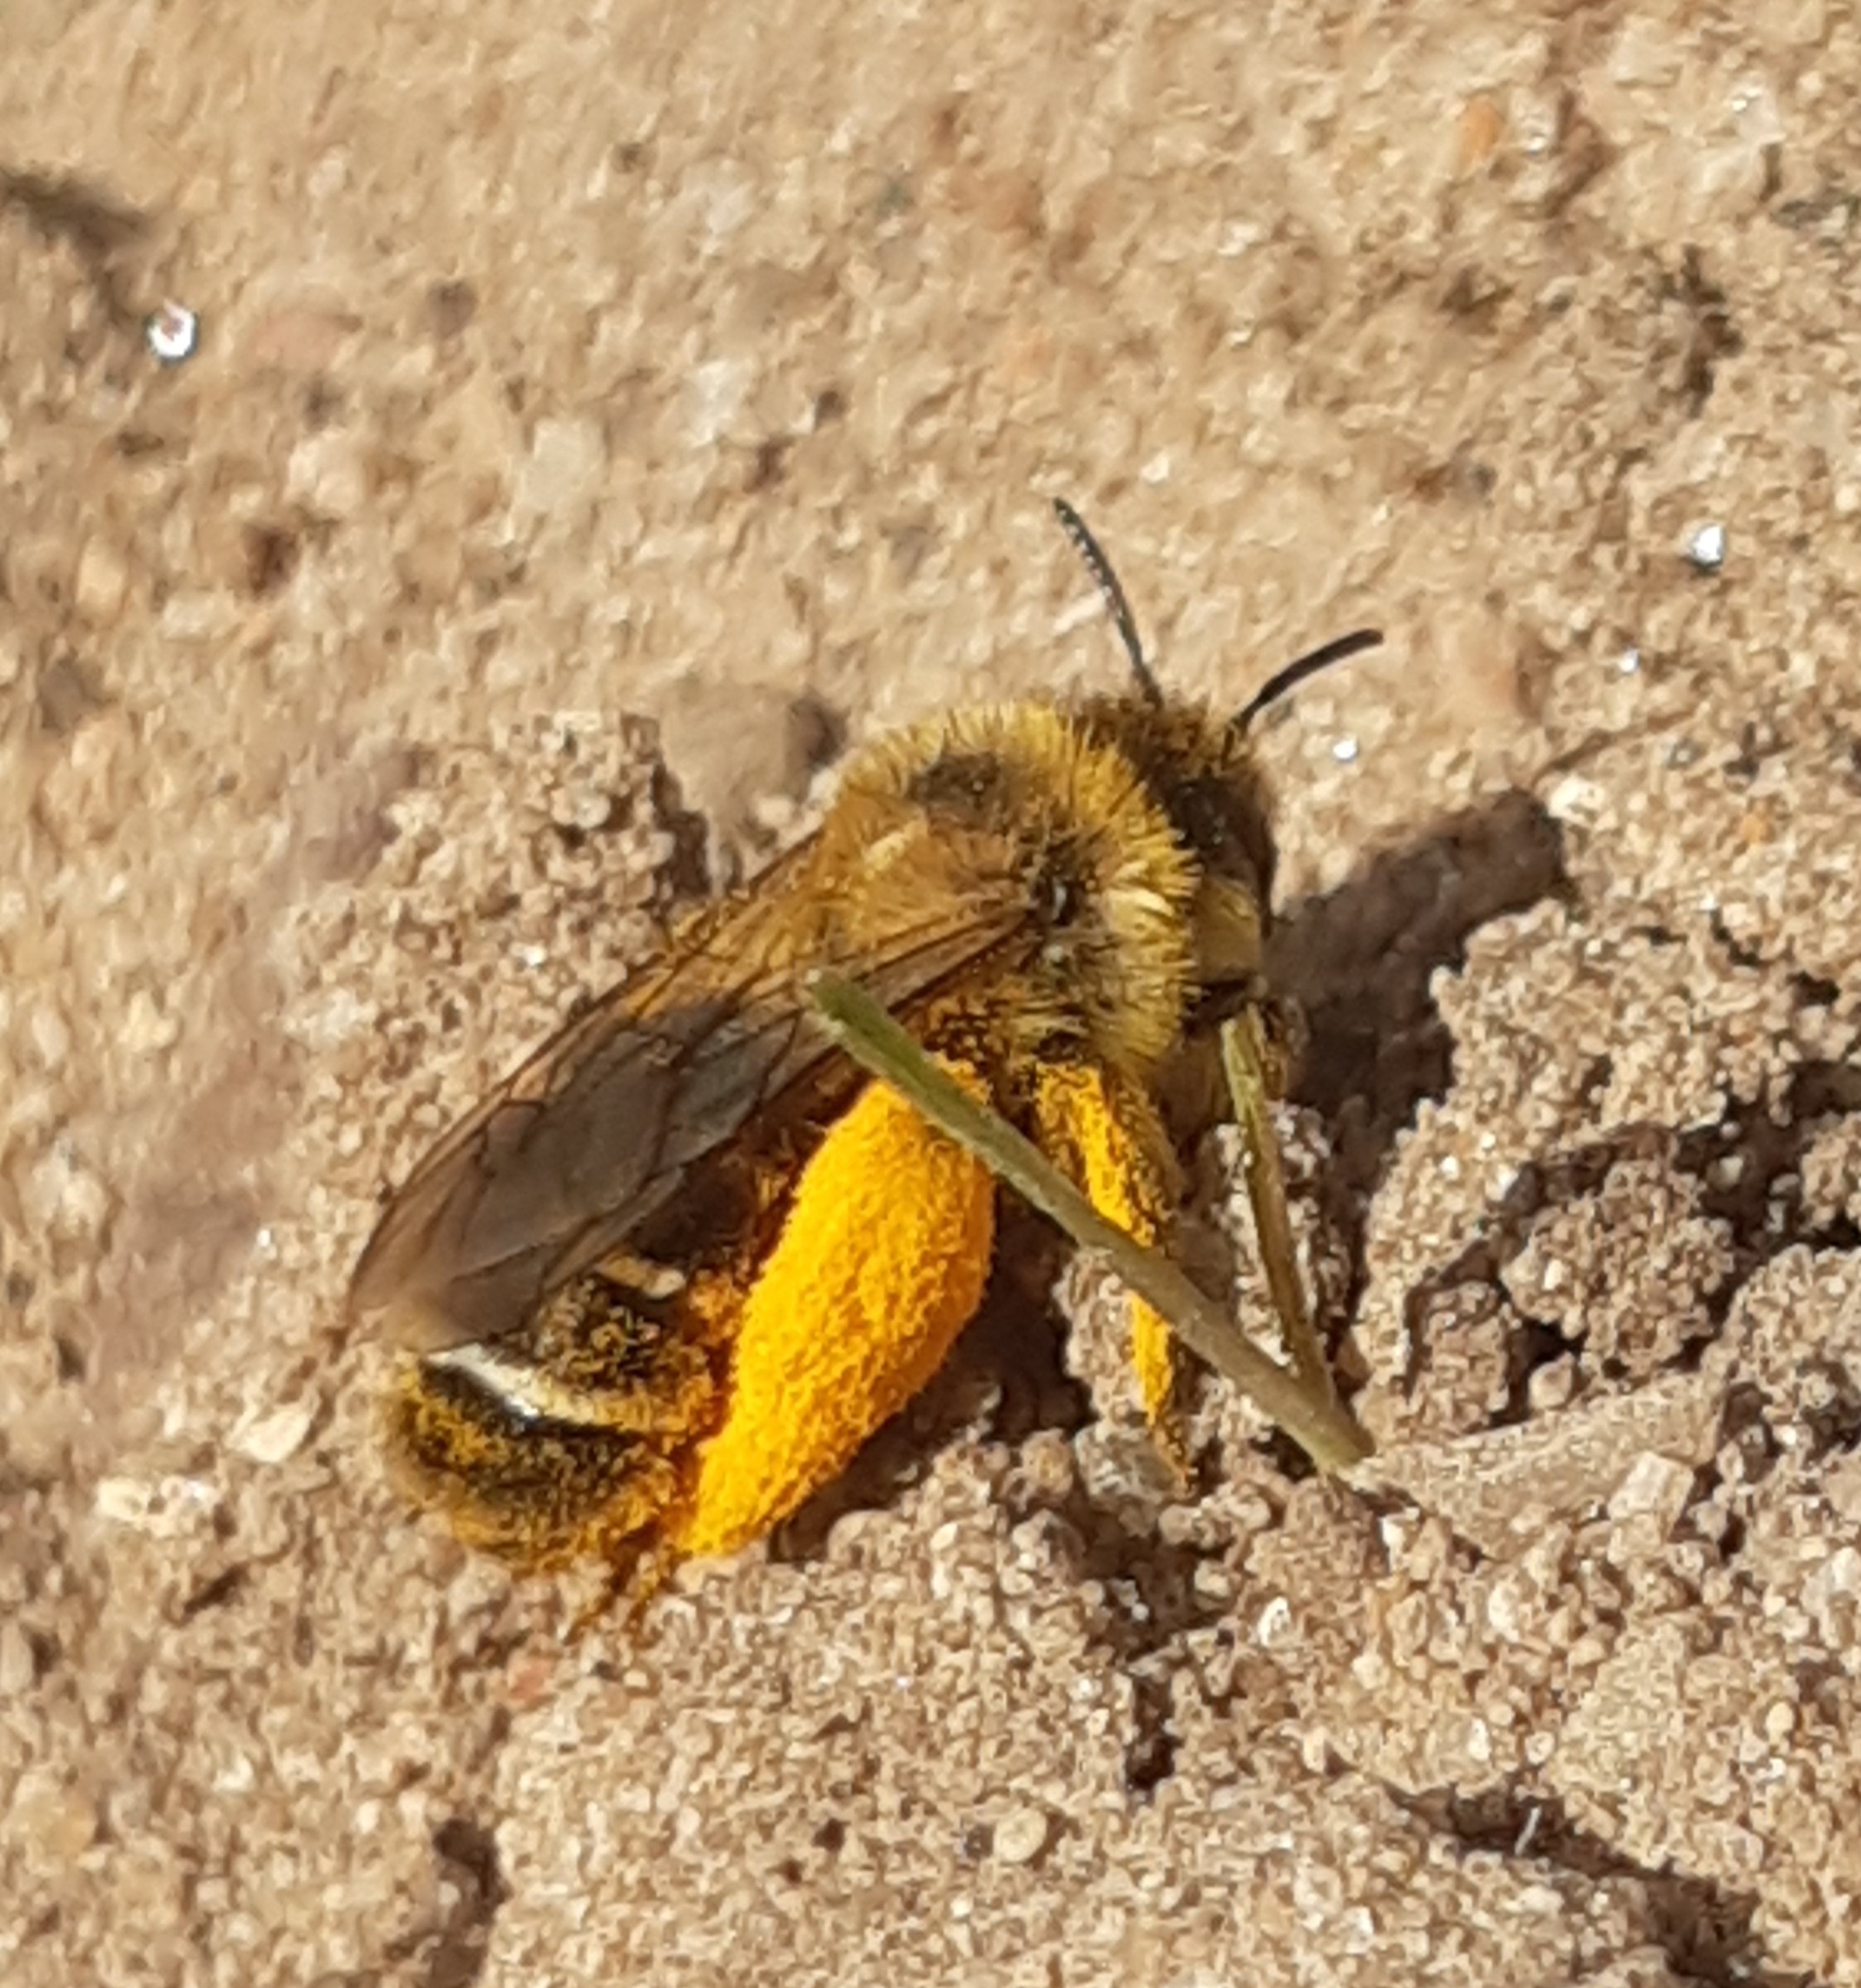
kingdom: Animalia
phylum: Arthropoda
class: Insecta
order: Hymenoptera
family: Melittidae
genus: Dasypoda
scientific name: Dasypoda hirtipes
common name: Pragtbuksebi
